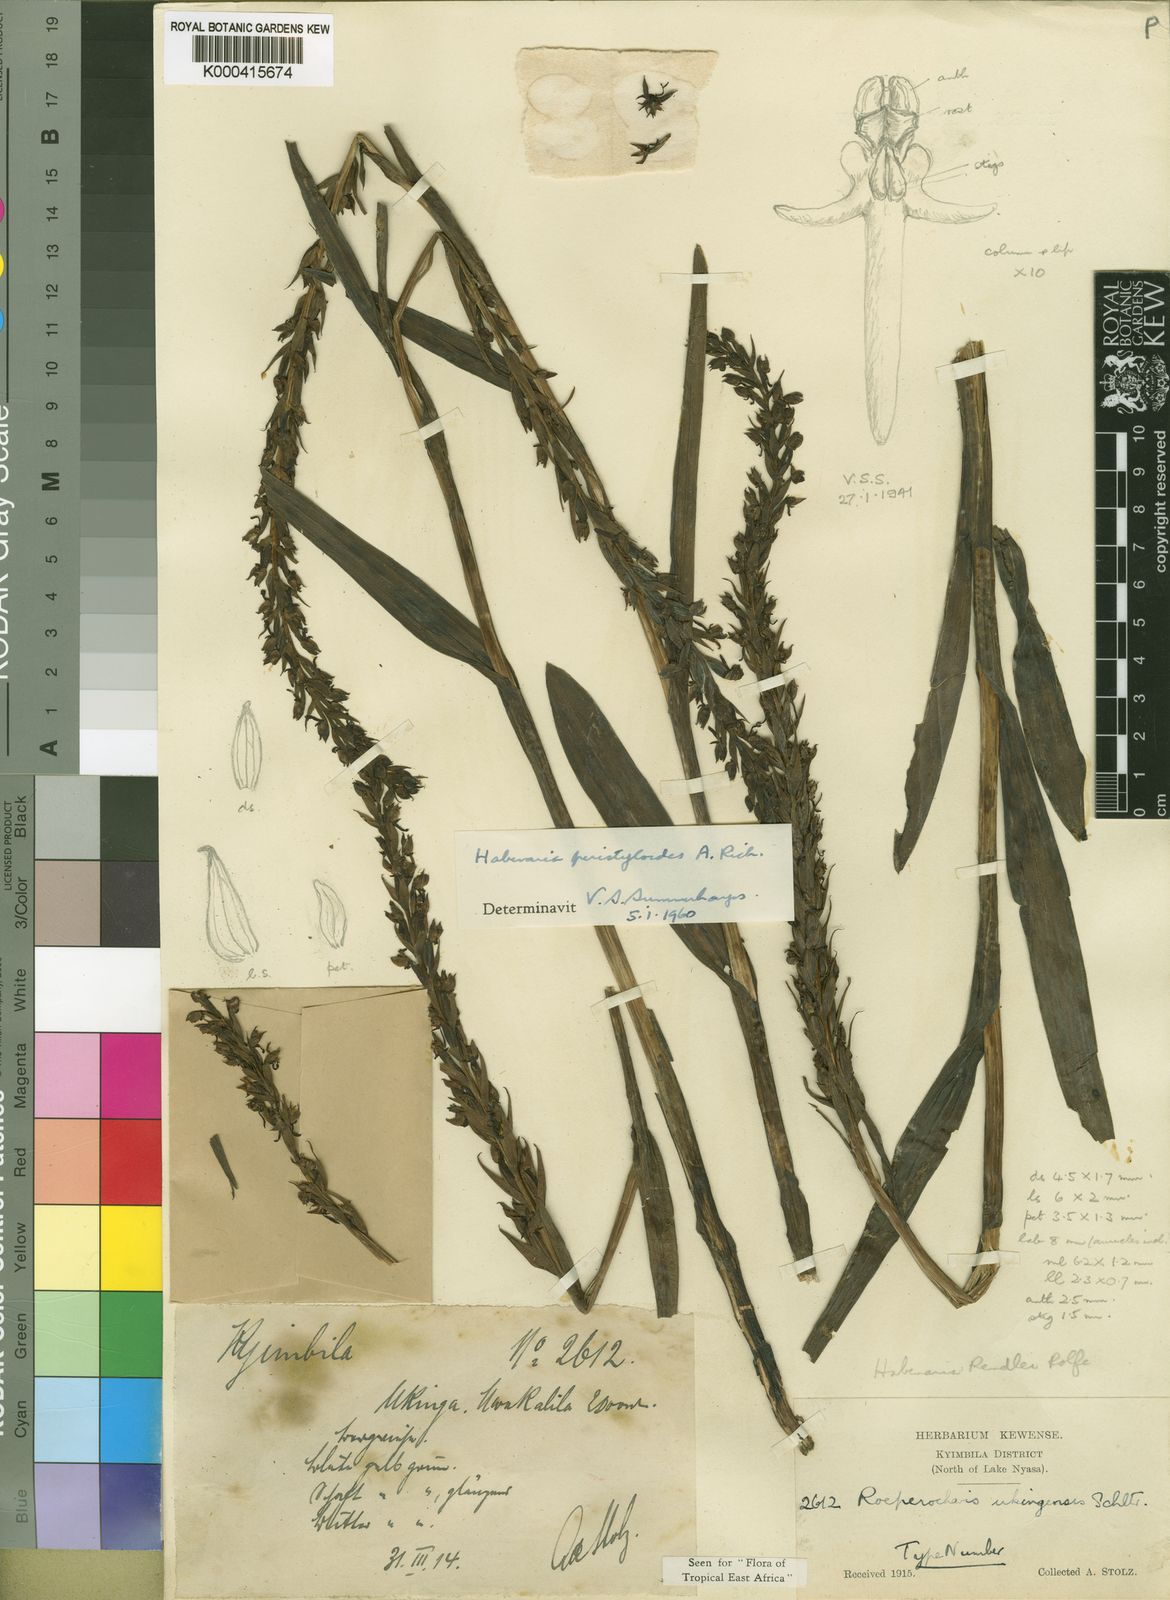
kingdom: Plantae
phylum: Tracheophyta
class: Liliopsida
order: Asparagales
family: Orchidaceae
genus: Habenaria
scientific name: Habenaria peristyloides
